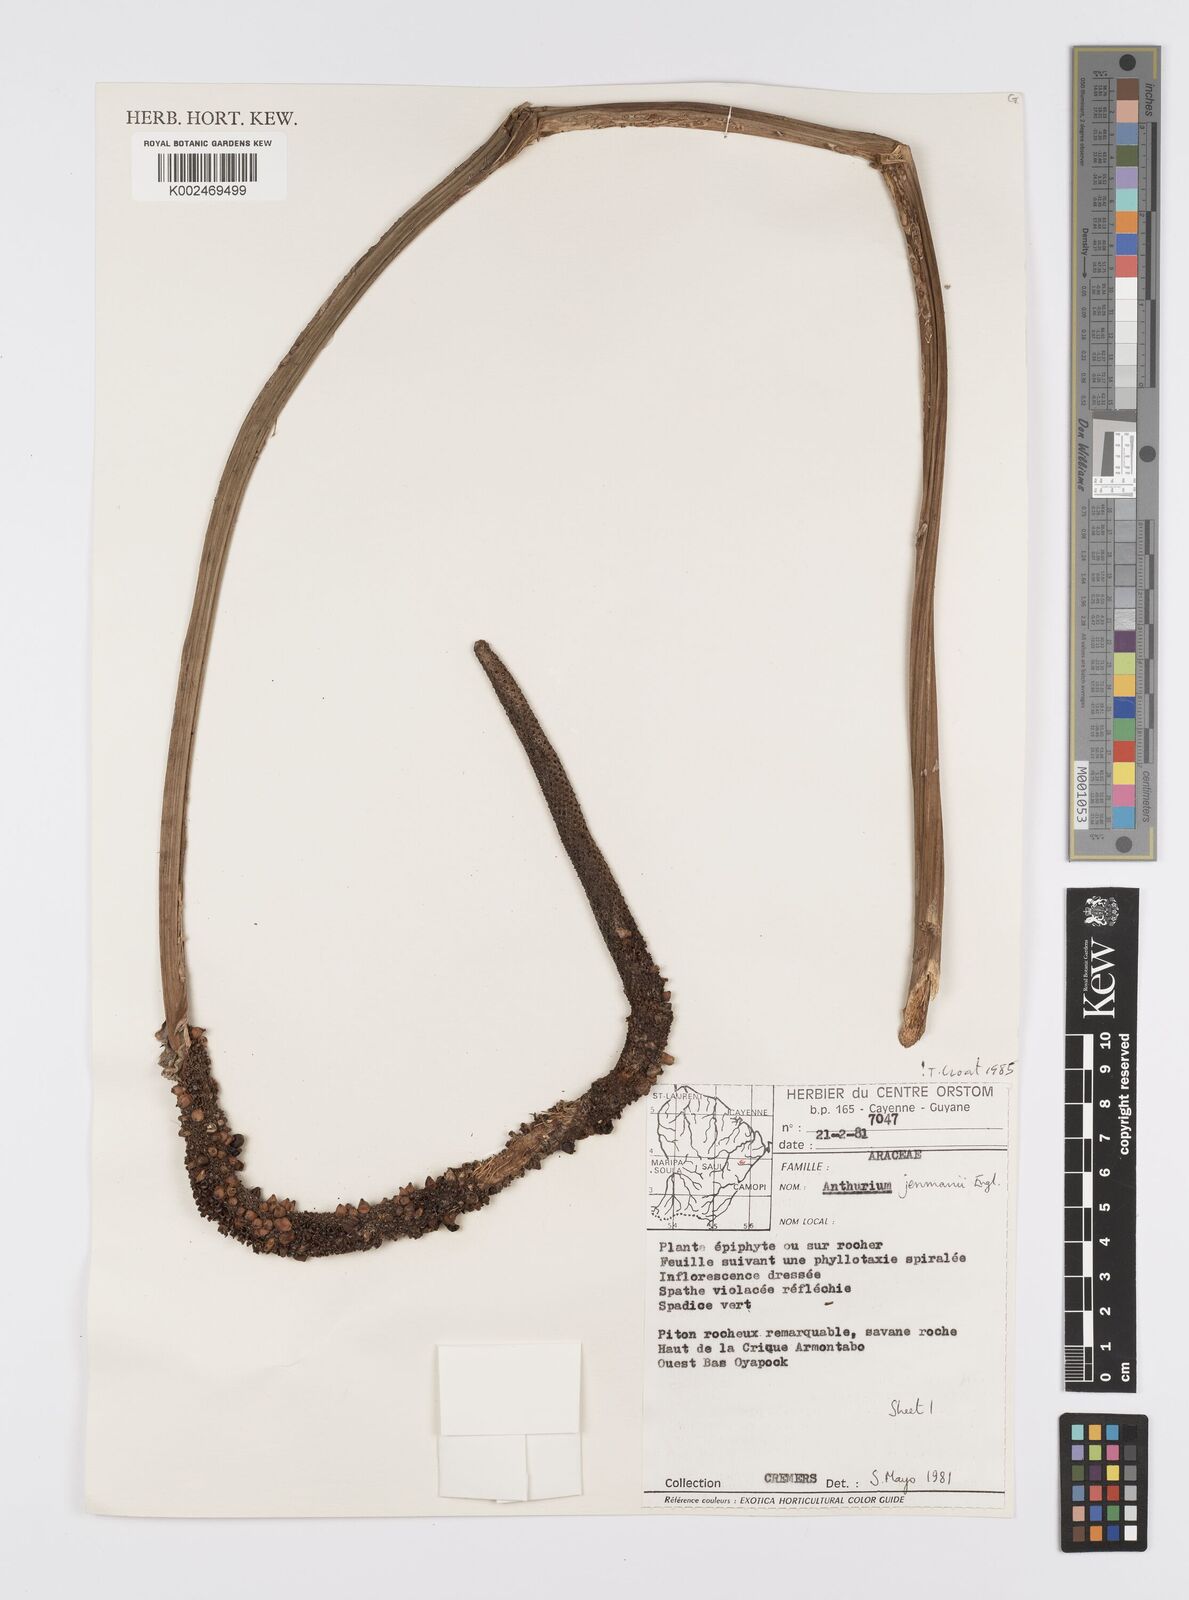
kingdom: Plantae
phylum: Tracheophyta
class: Liliopsida
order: Alismatales
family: Araceae
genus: Anthurium
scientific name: Anthurium jenmanii
